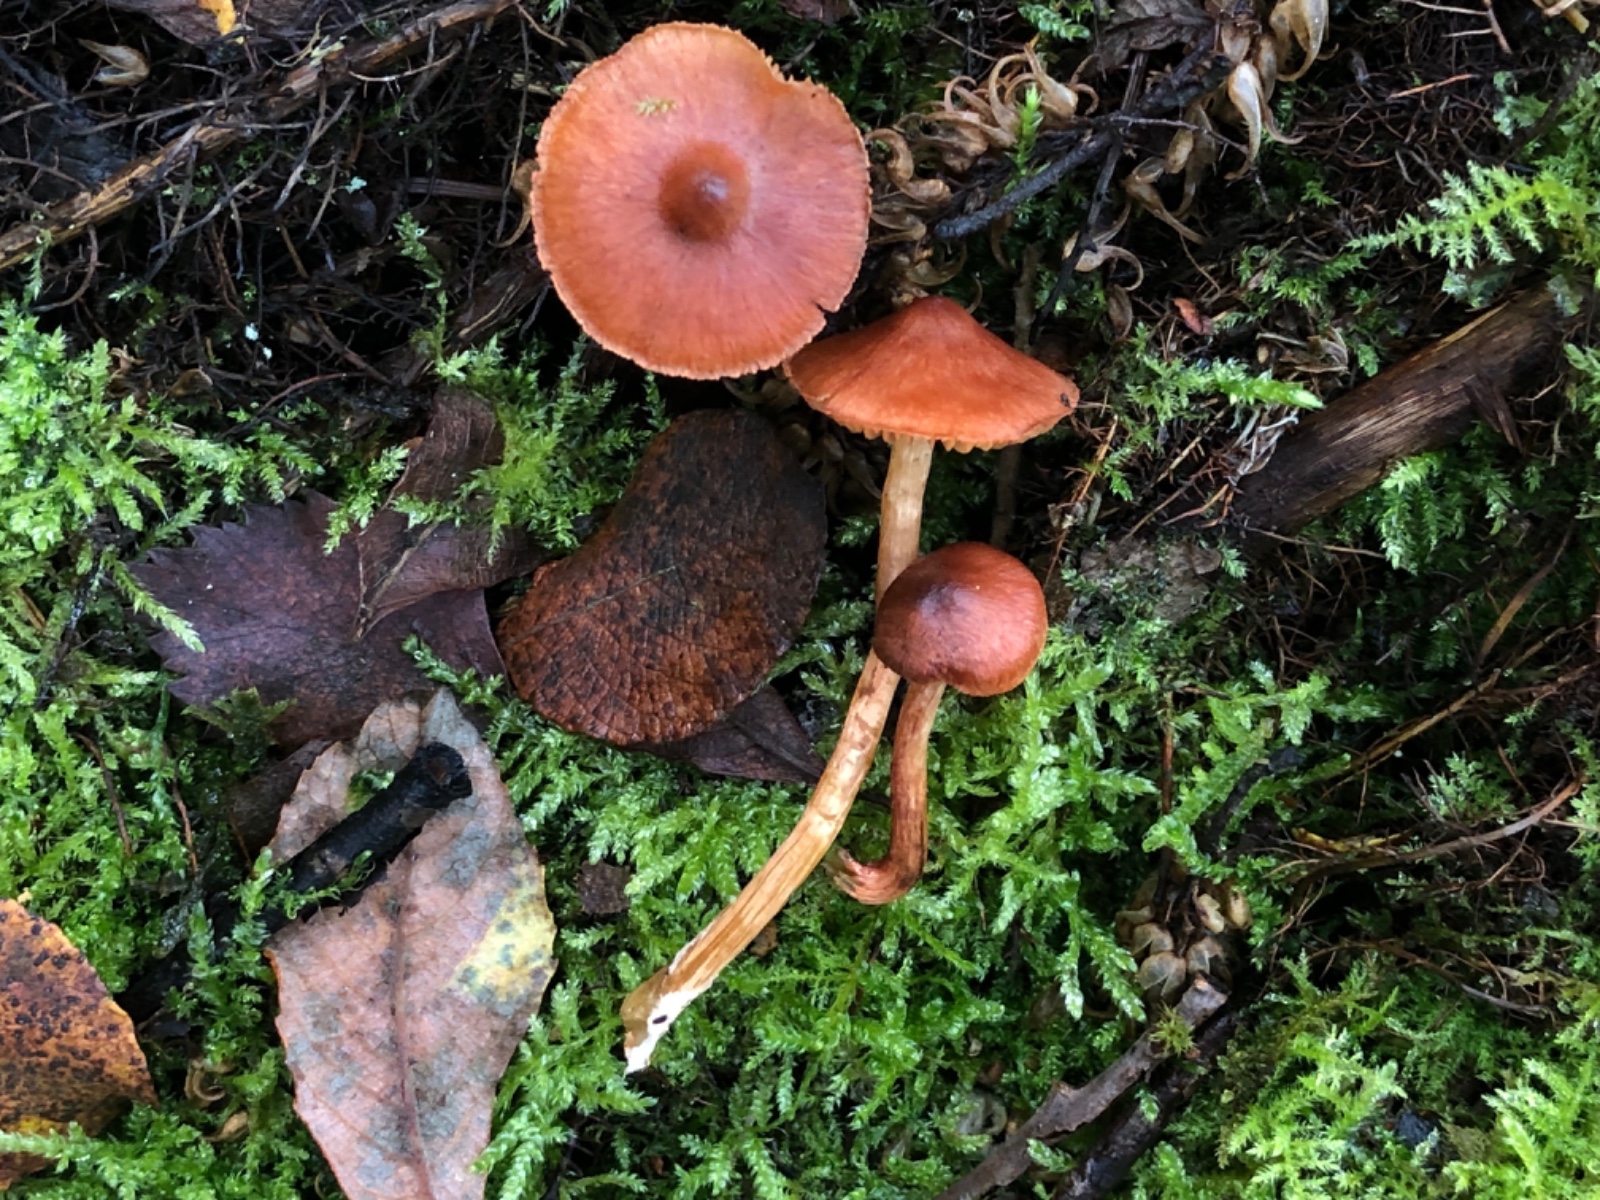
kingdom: Fungi
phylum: Basidiomycota
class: Agaricomycetes
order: Agaricales
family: Cortinariaceae
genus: Cortinarius
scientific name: Cortinarius uliginosus
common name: mose-slørhat
